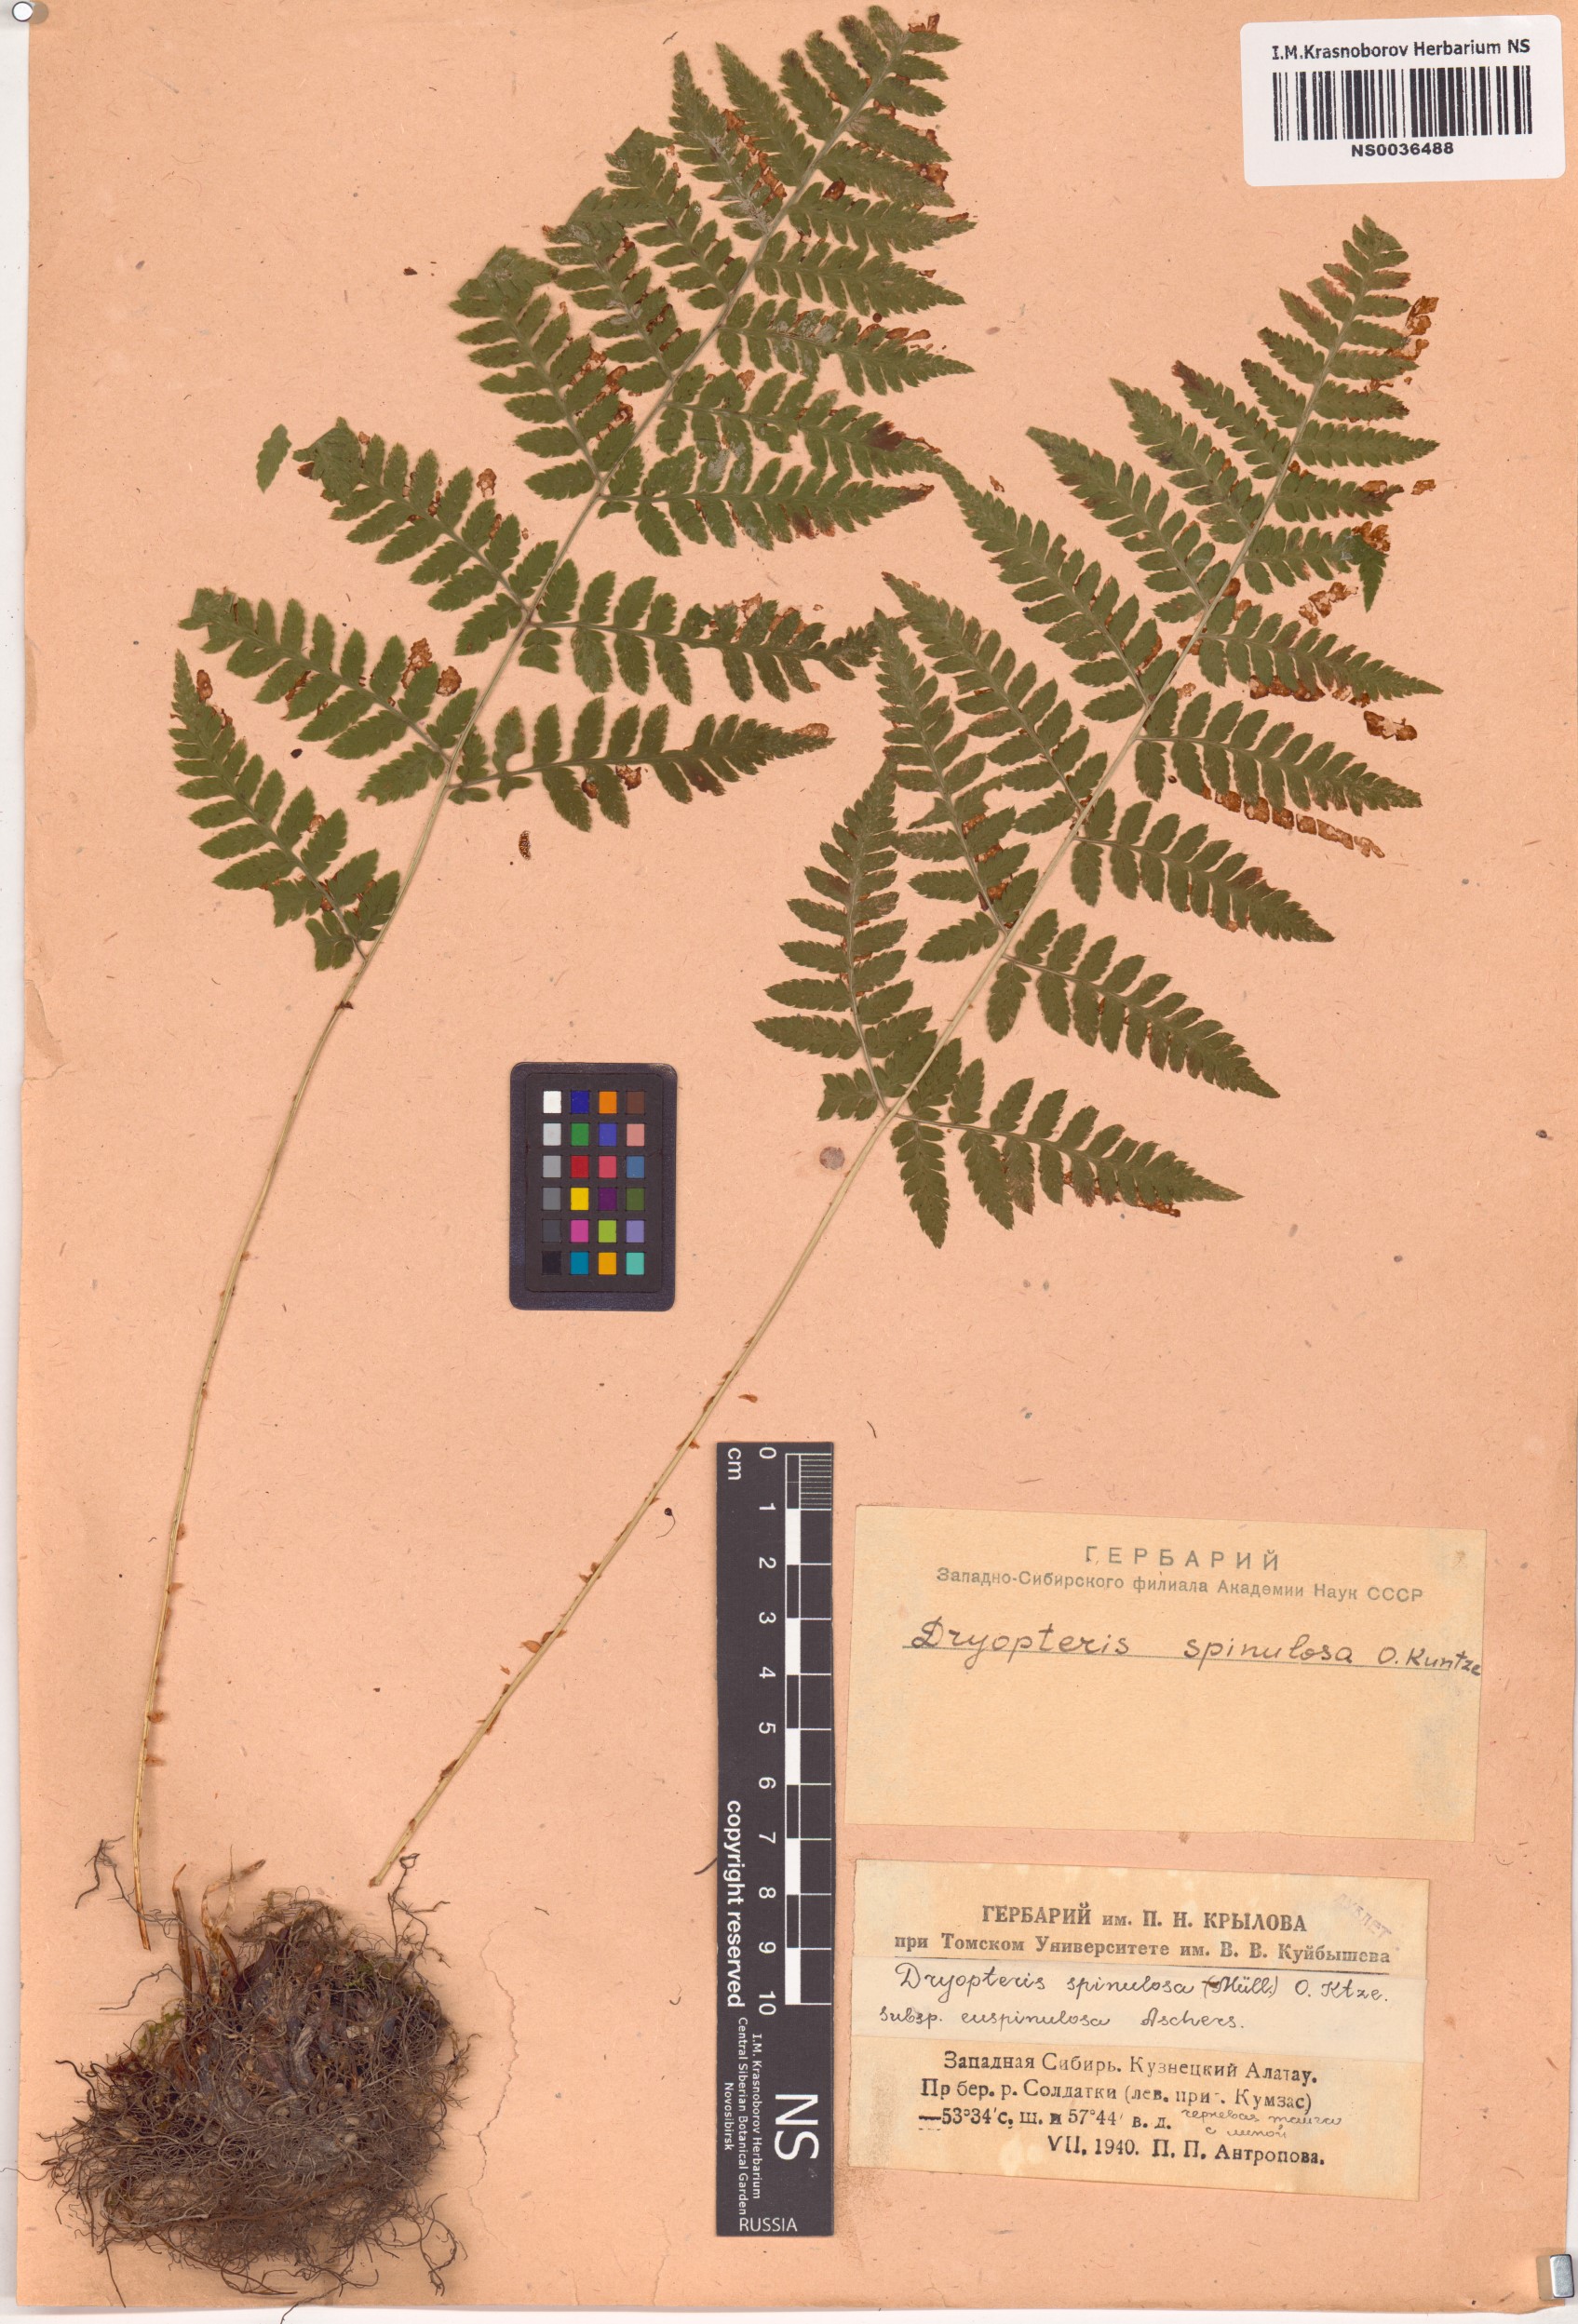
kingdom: Plantae
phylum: Tracheophyta
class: Polypodiopsida
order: Polypodiales
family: Dryopteridaceae
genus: Dryopteris
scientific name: Dryopteris carthusiana
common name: Narrow buckler-fern
